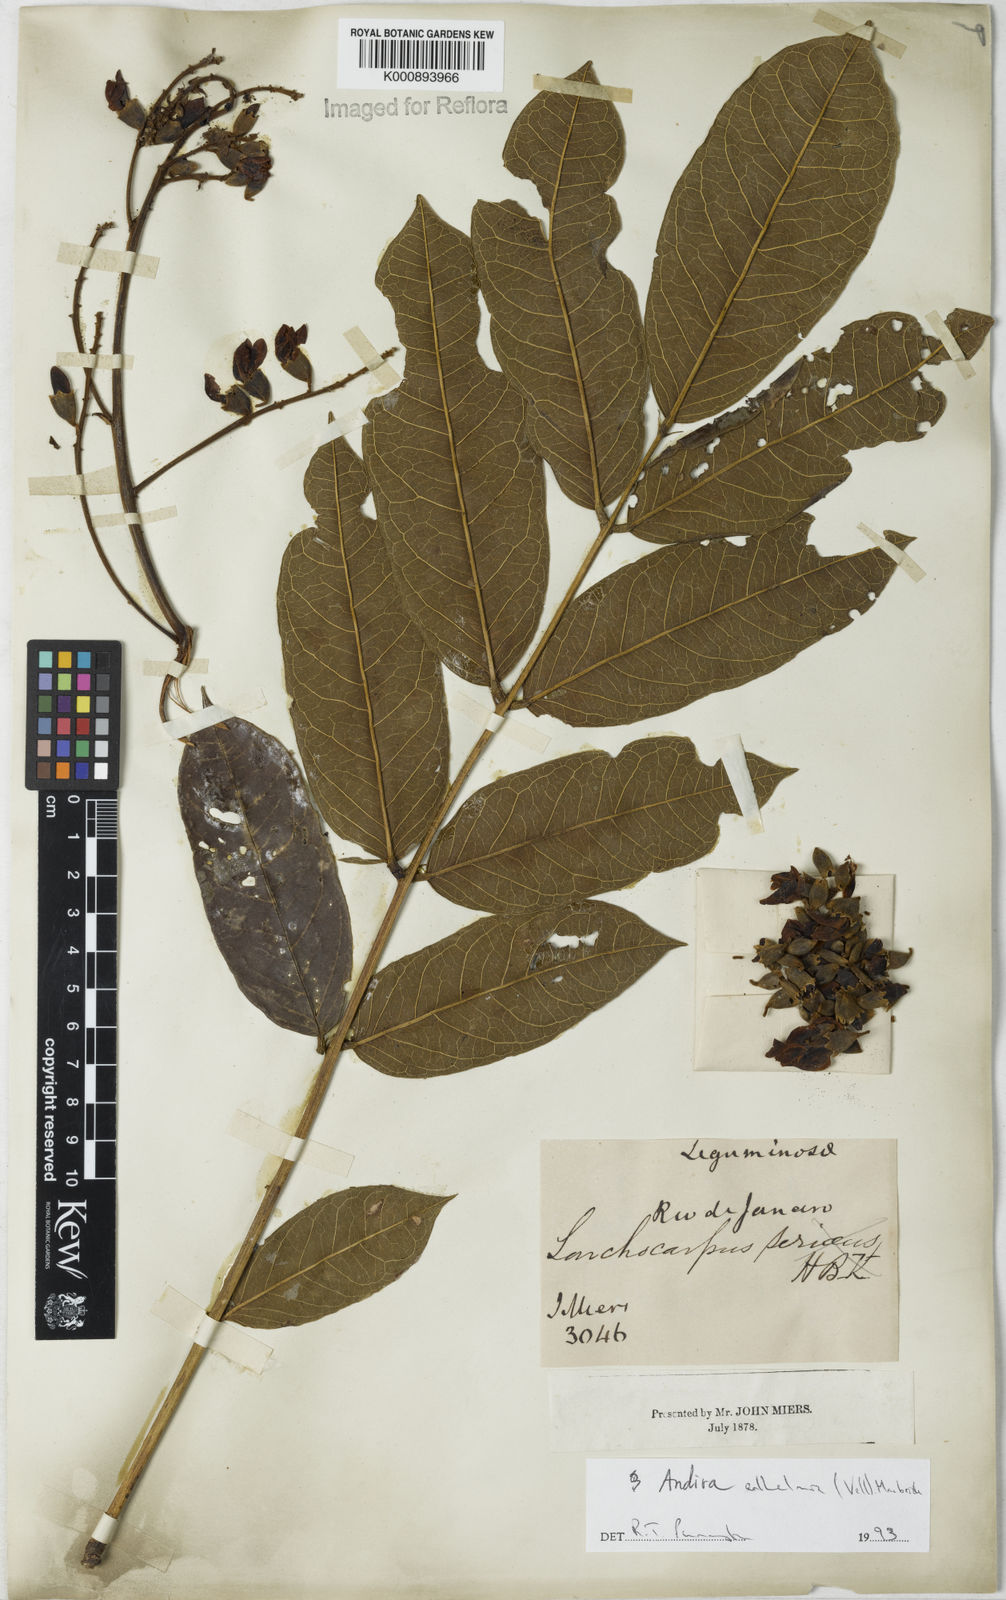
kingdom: Plantae
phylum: Tracheophyta
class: Magnoliopsida
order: Fabales
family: Fabaceae
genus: Andira
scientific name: Andira
